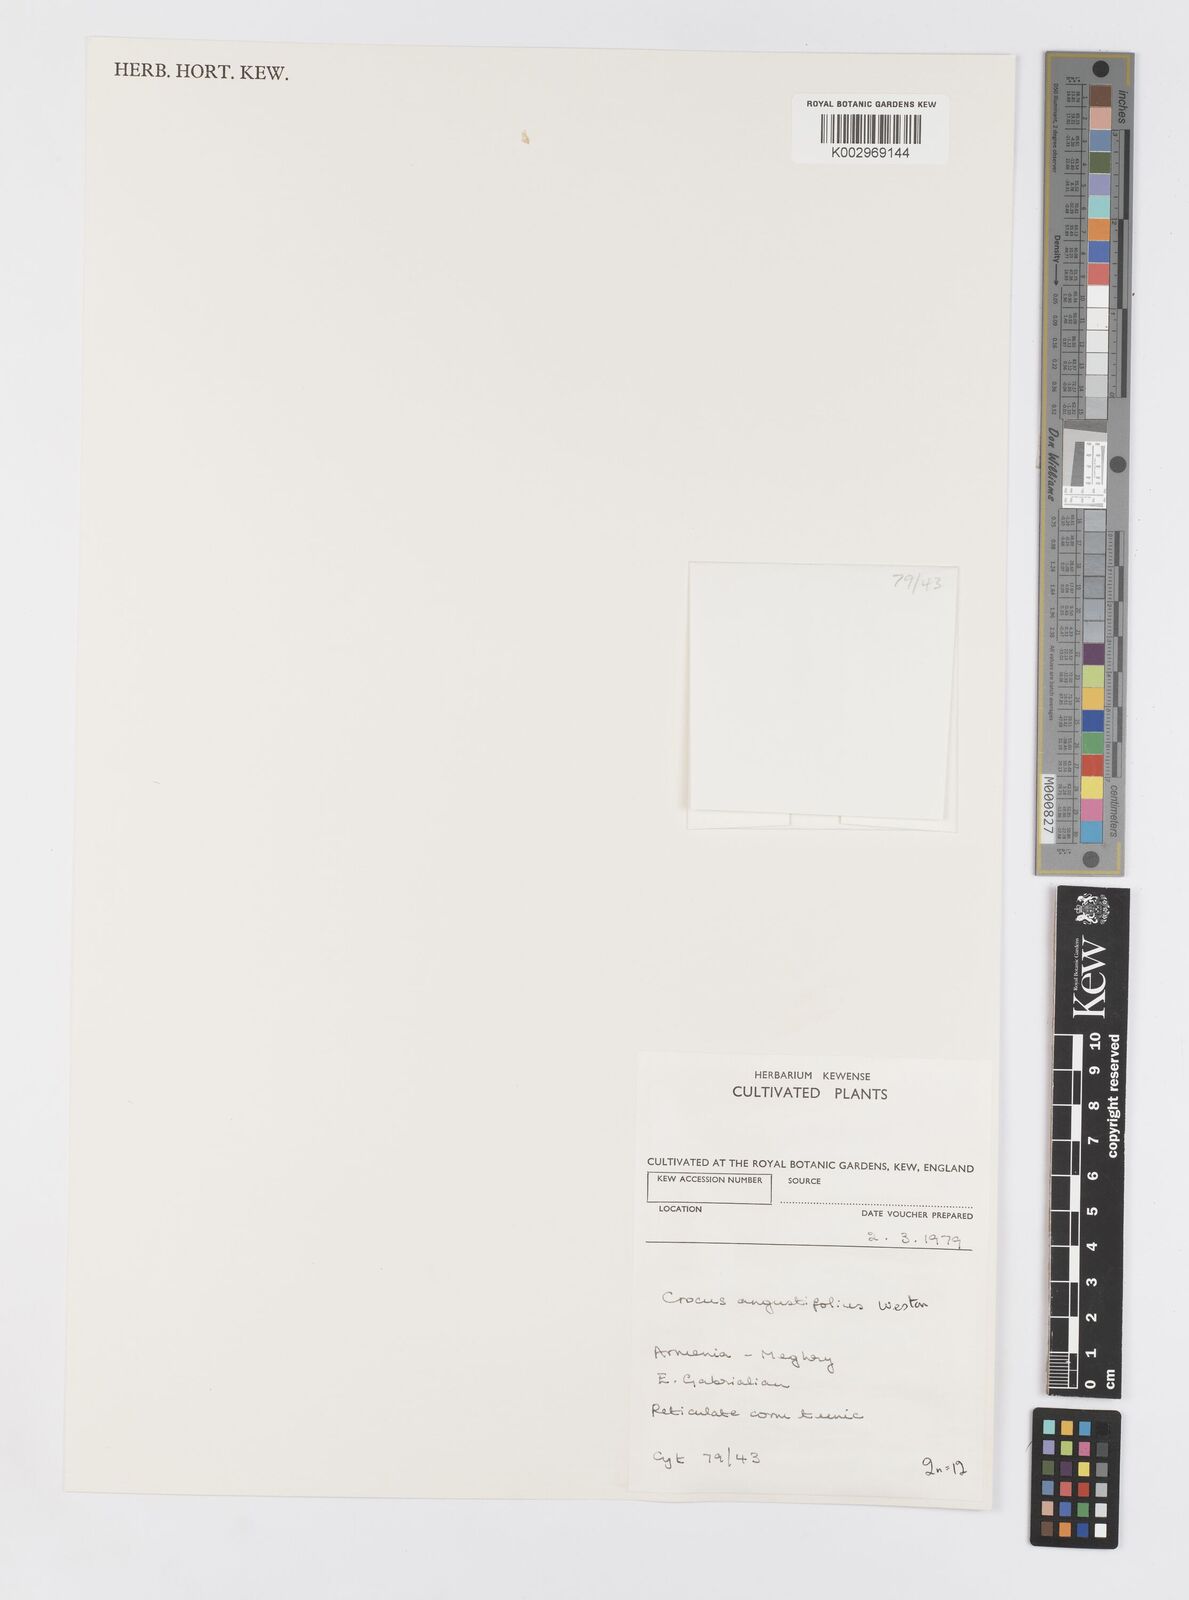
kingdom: Plantae
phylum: Tracheophyta
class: Liliopsida
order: Asparagales
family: Iridaceae
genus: Crocus
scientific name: Crocus angustifolius
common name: Cloth of gold
